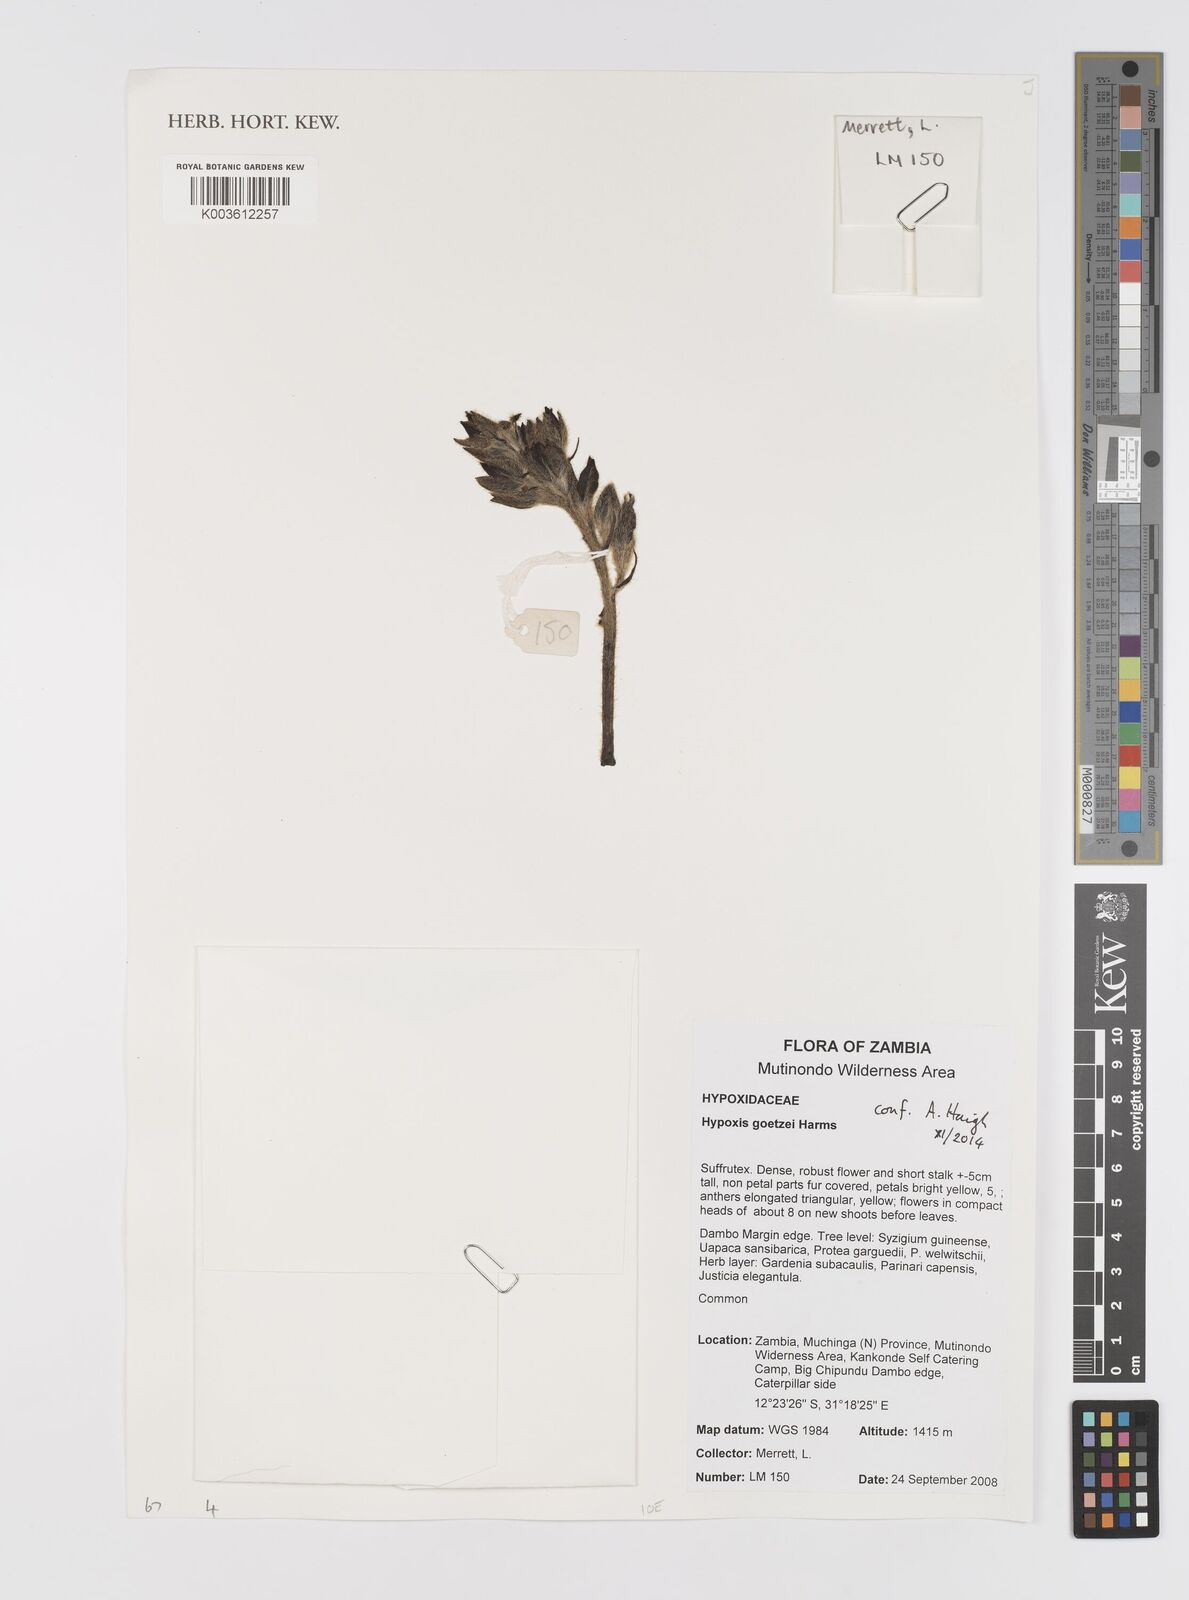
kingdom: Plantae
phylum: Tracheophyta
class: Liliopsida
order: Asparagales
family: Hypoxidaceae
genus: Hypoxis
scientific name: Hypoxis goetzei
